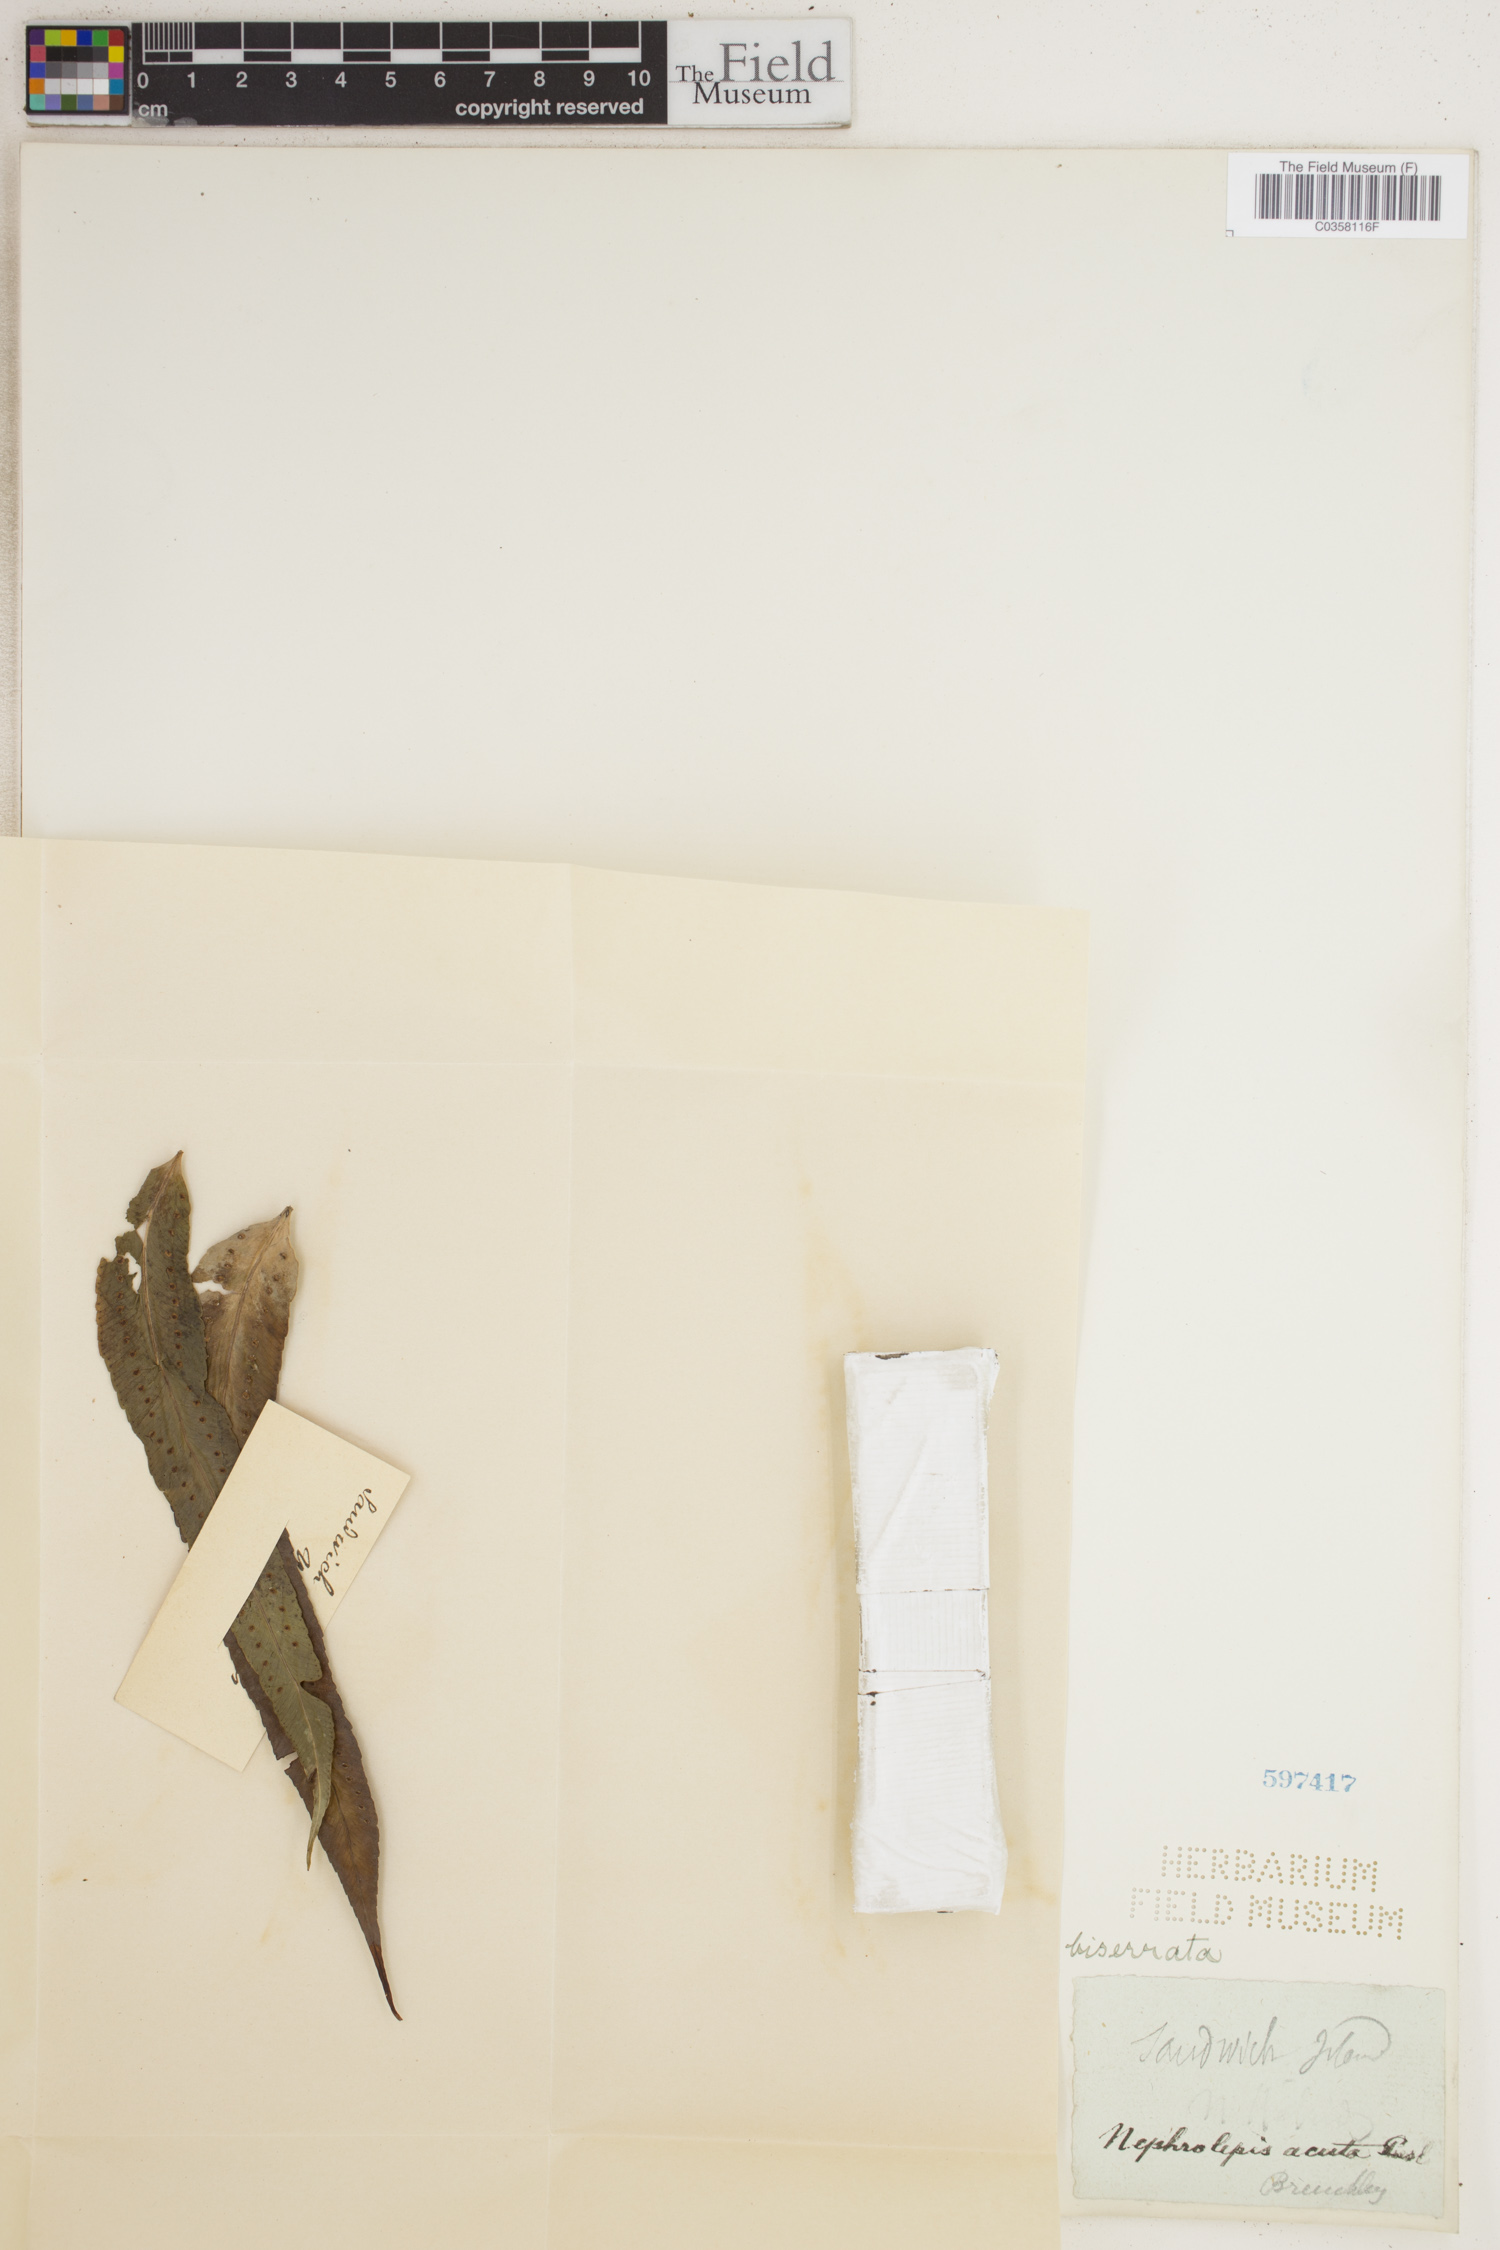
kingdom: Plantae
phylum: Tracheophyta
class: Polypodiopsida
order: Polypodiales
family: Nephrolepidaceae
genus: Nephrolepis
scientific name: Nephrolepis biserrata
